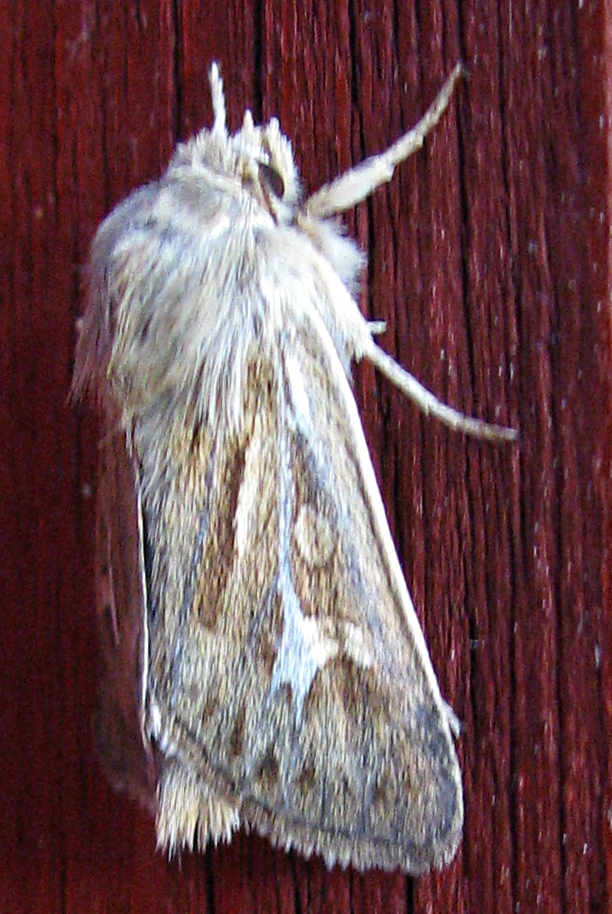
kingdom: Animalia
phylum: Arthropoda
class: Insecta
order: Lepidoptera
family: Noctuidae
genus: Cerapteryx
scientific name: Cerapteryx graminis
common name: Antler moth
